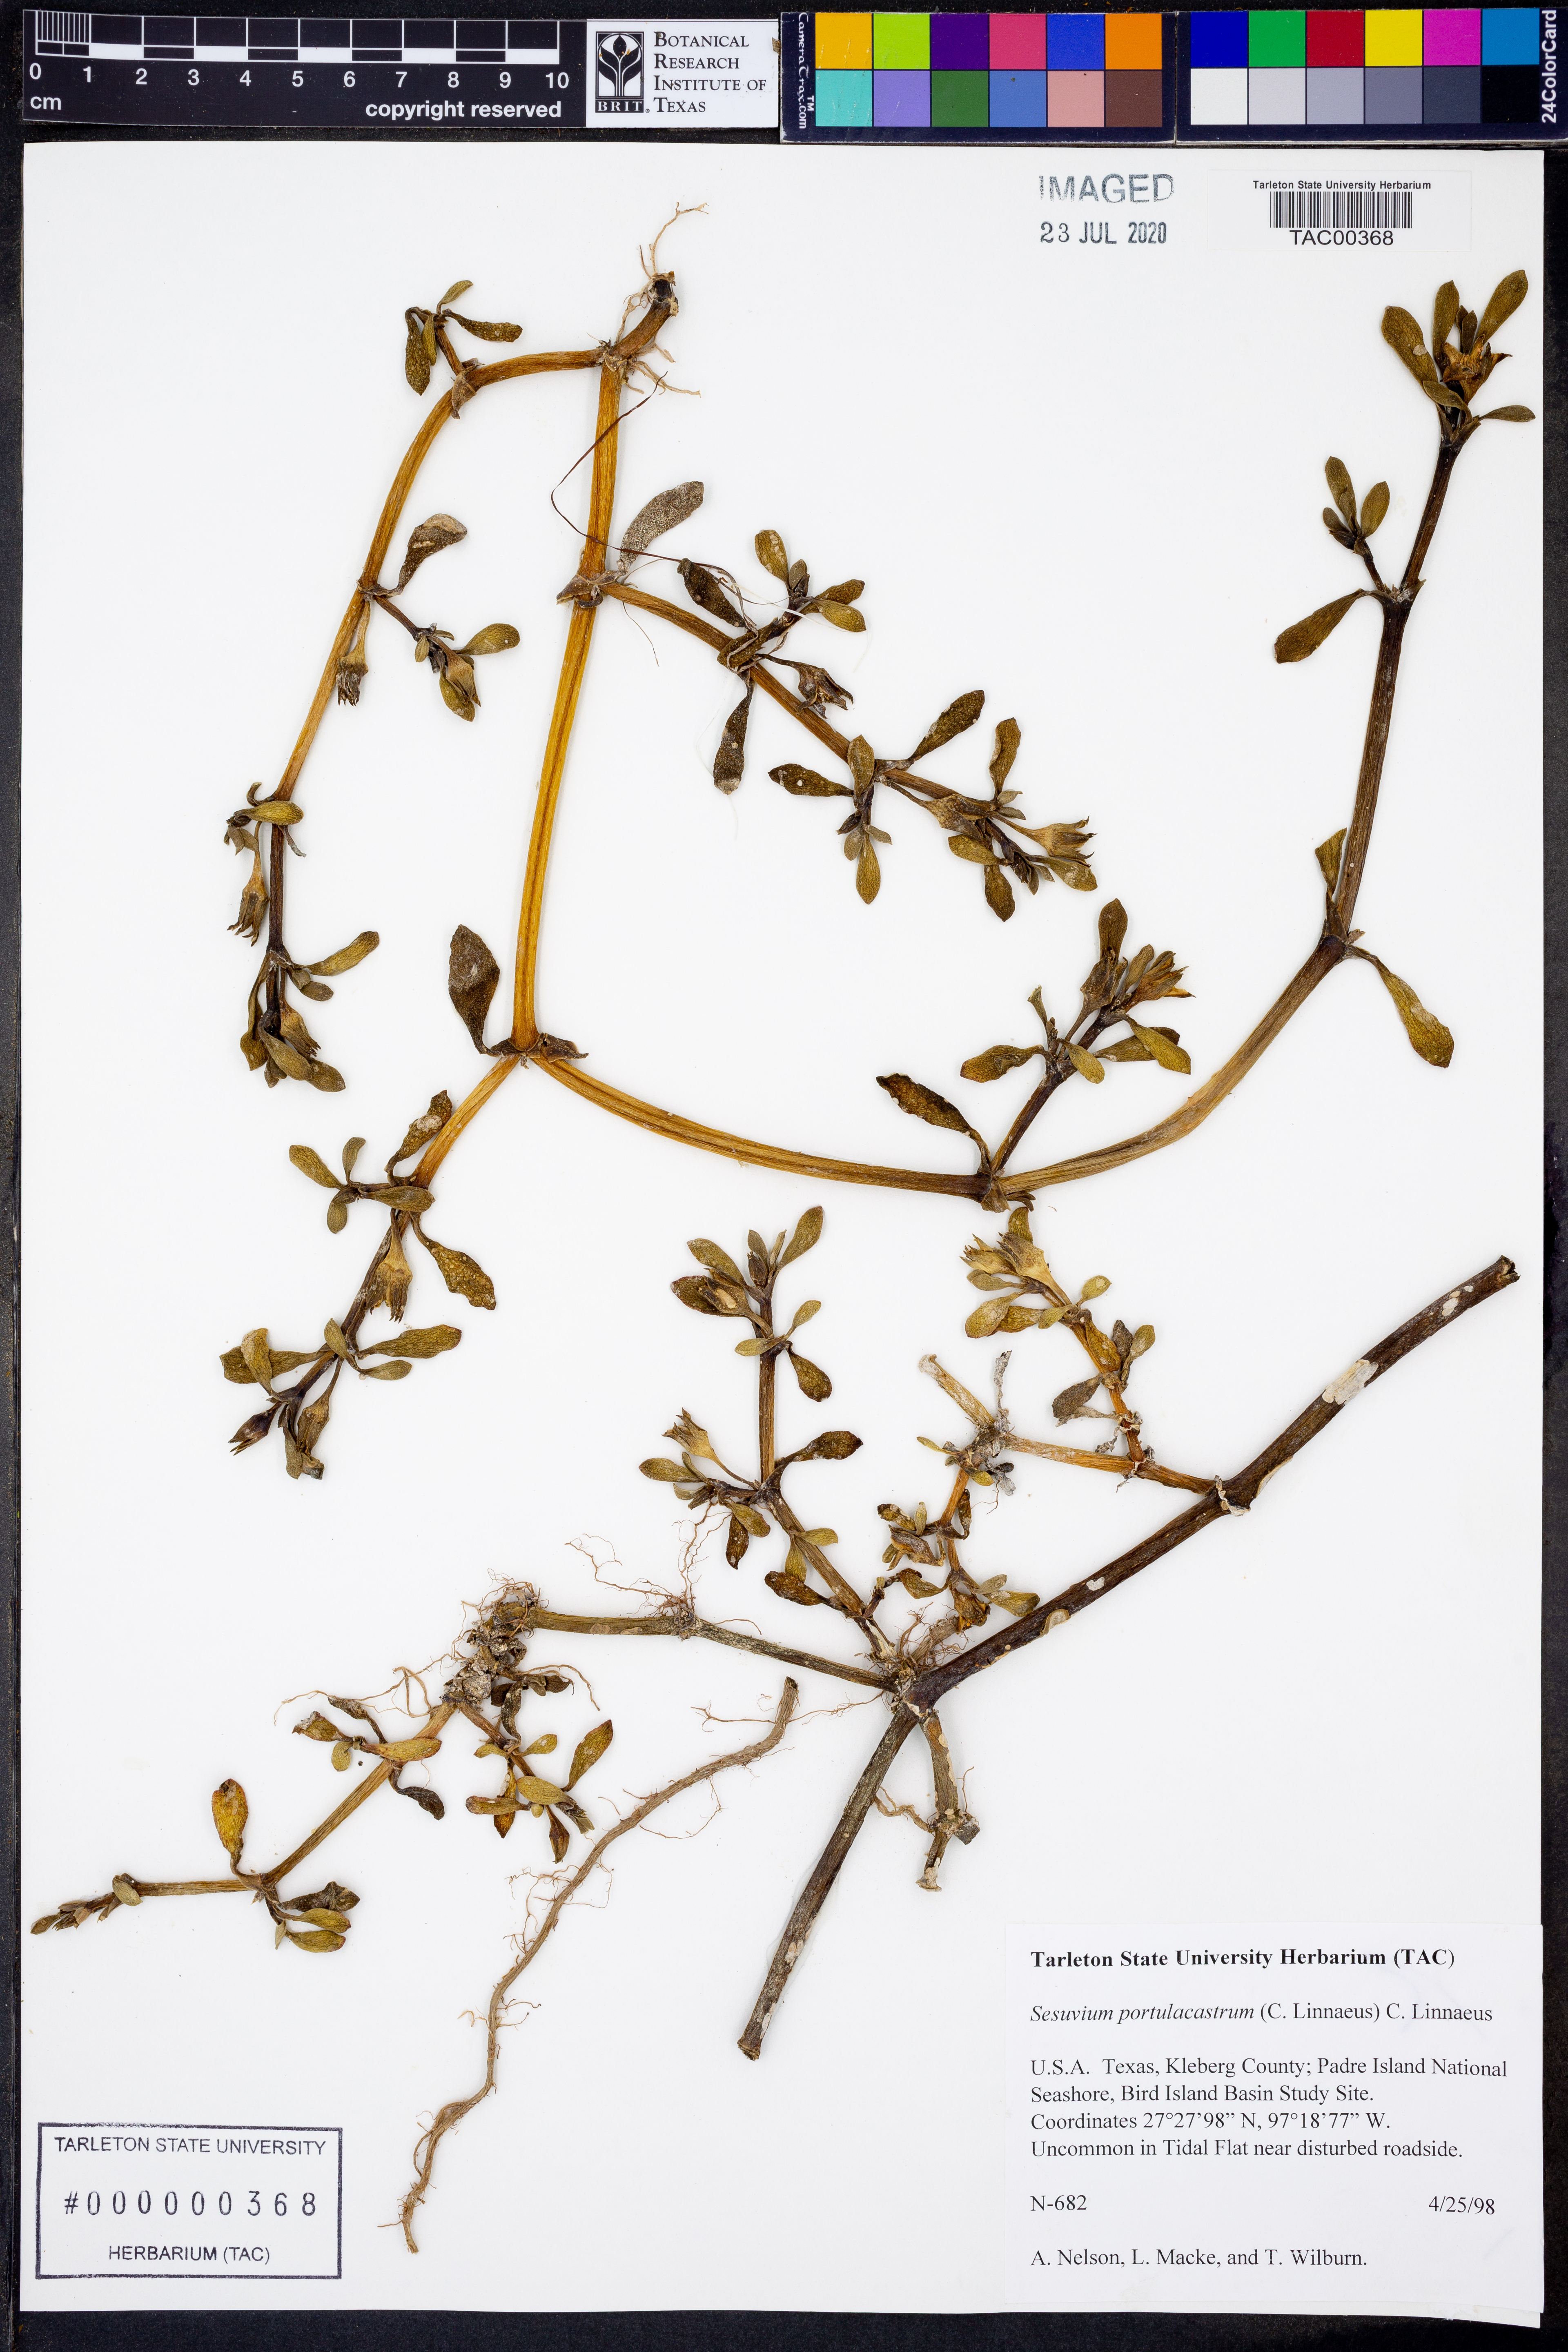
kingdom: Plantae
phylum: Tracheophyta
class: Magnoliopsida
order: Caryophyllales
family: Aizoaceae
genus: Sesuvium
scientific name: Sesuvium portulacastrum
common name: Sea-purslane
